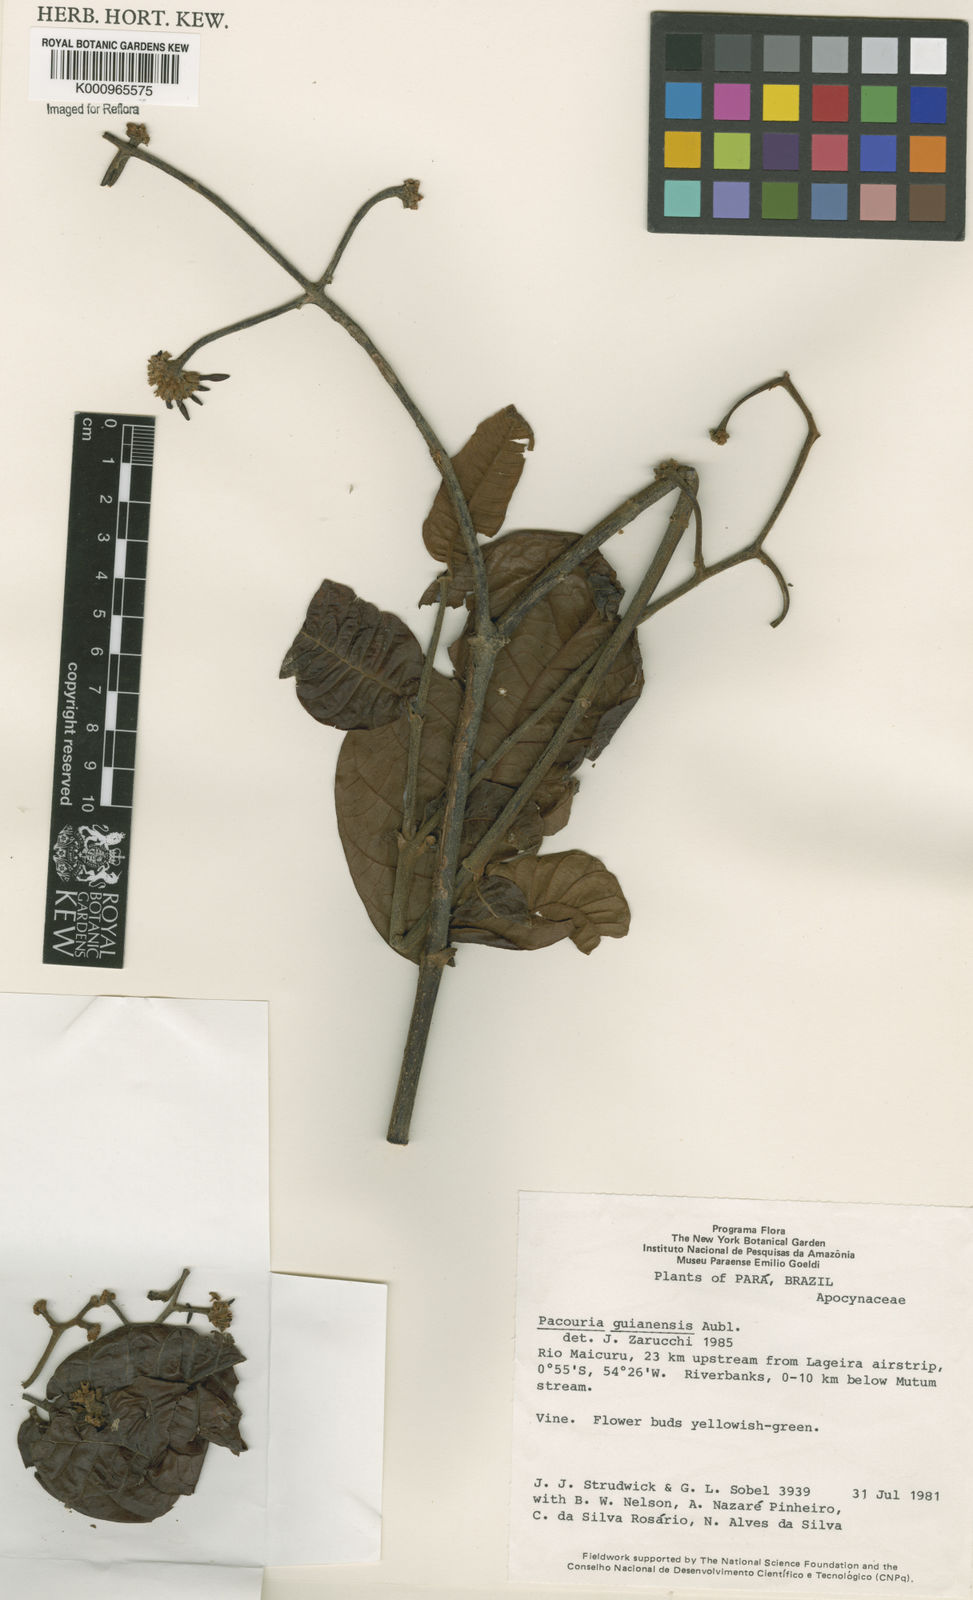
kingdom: Plantae
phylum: Tracheophyta
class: Magnoliopsida
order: Gentianales
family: Apocynaceae
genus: Pacouria
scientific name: Pacouria guianensis
